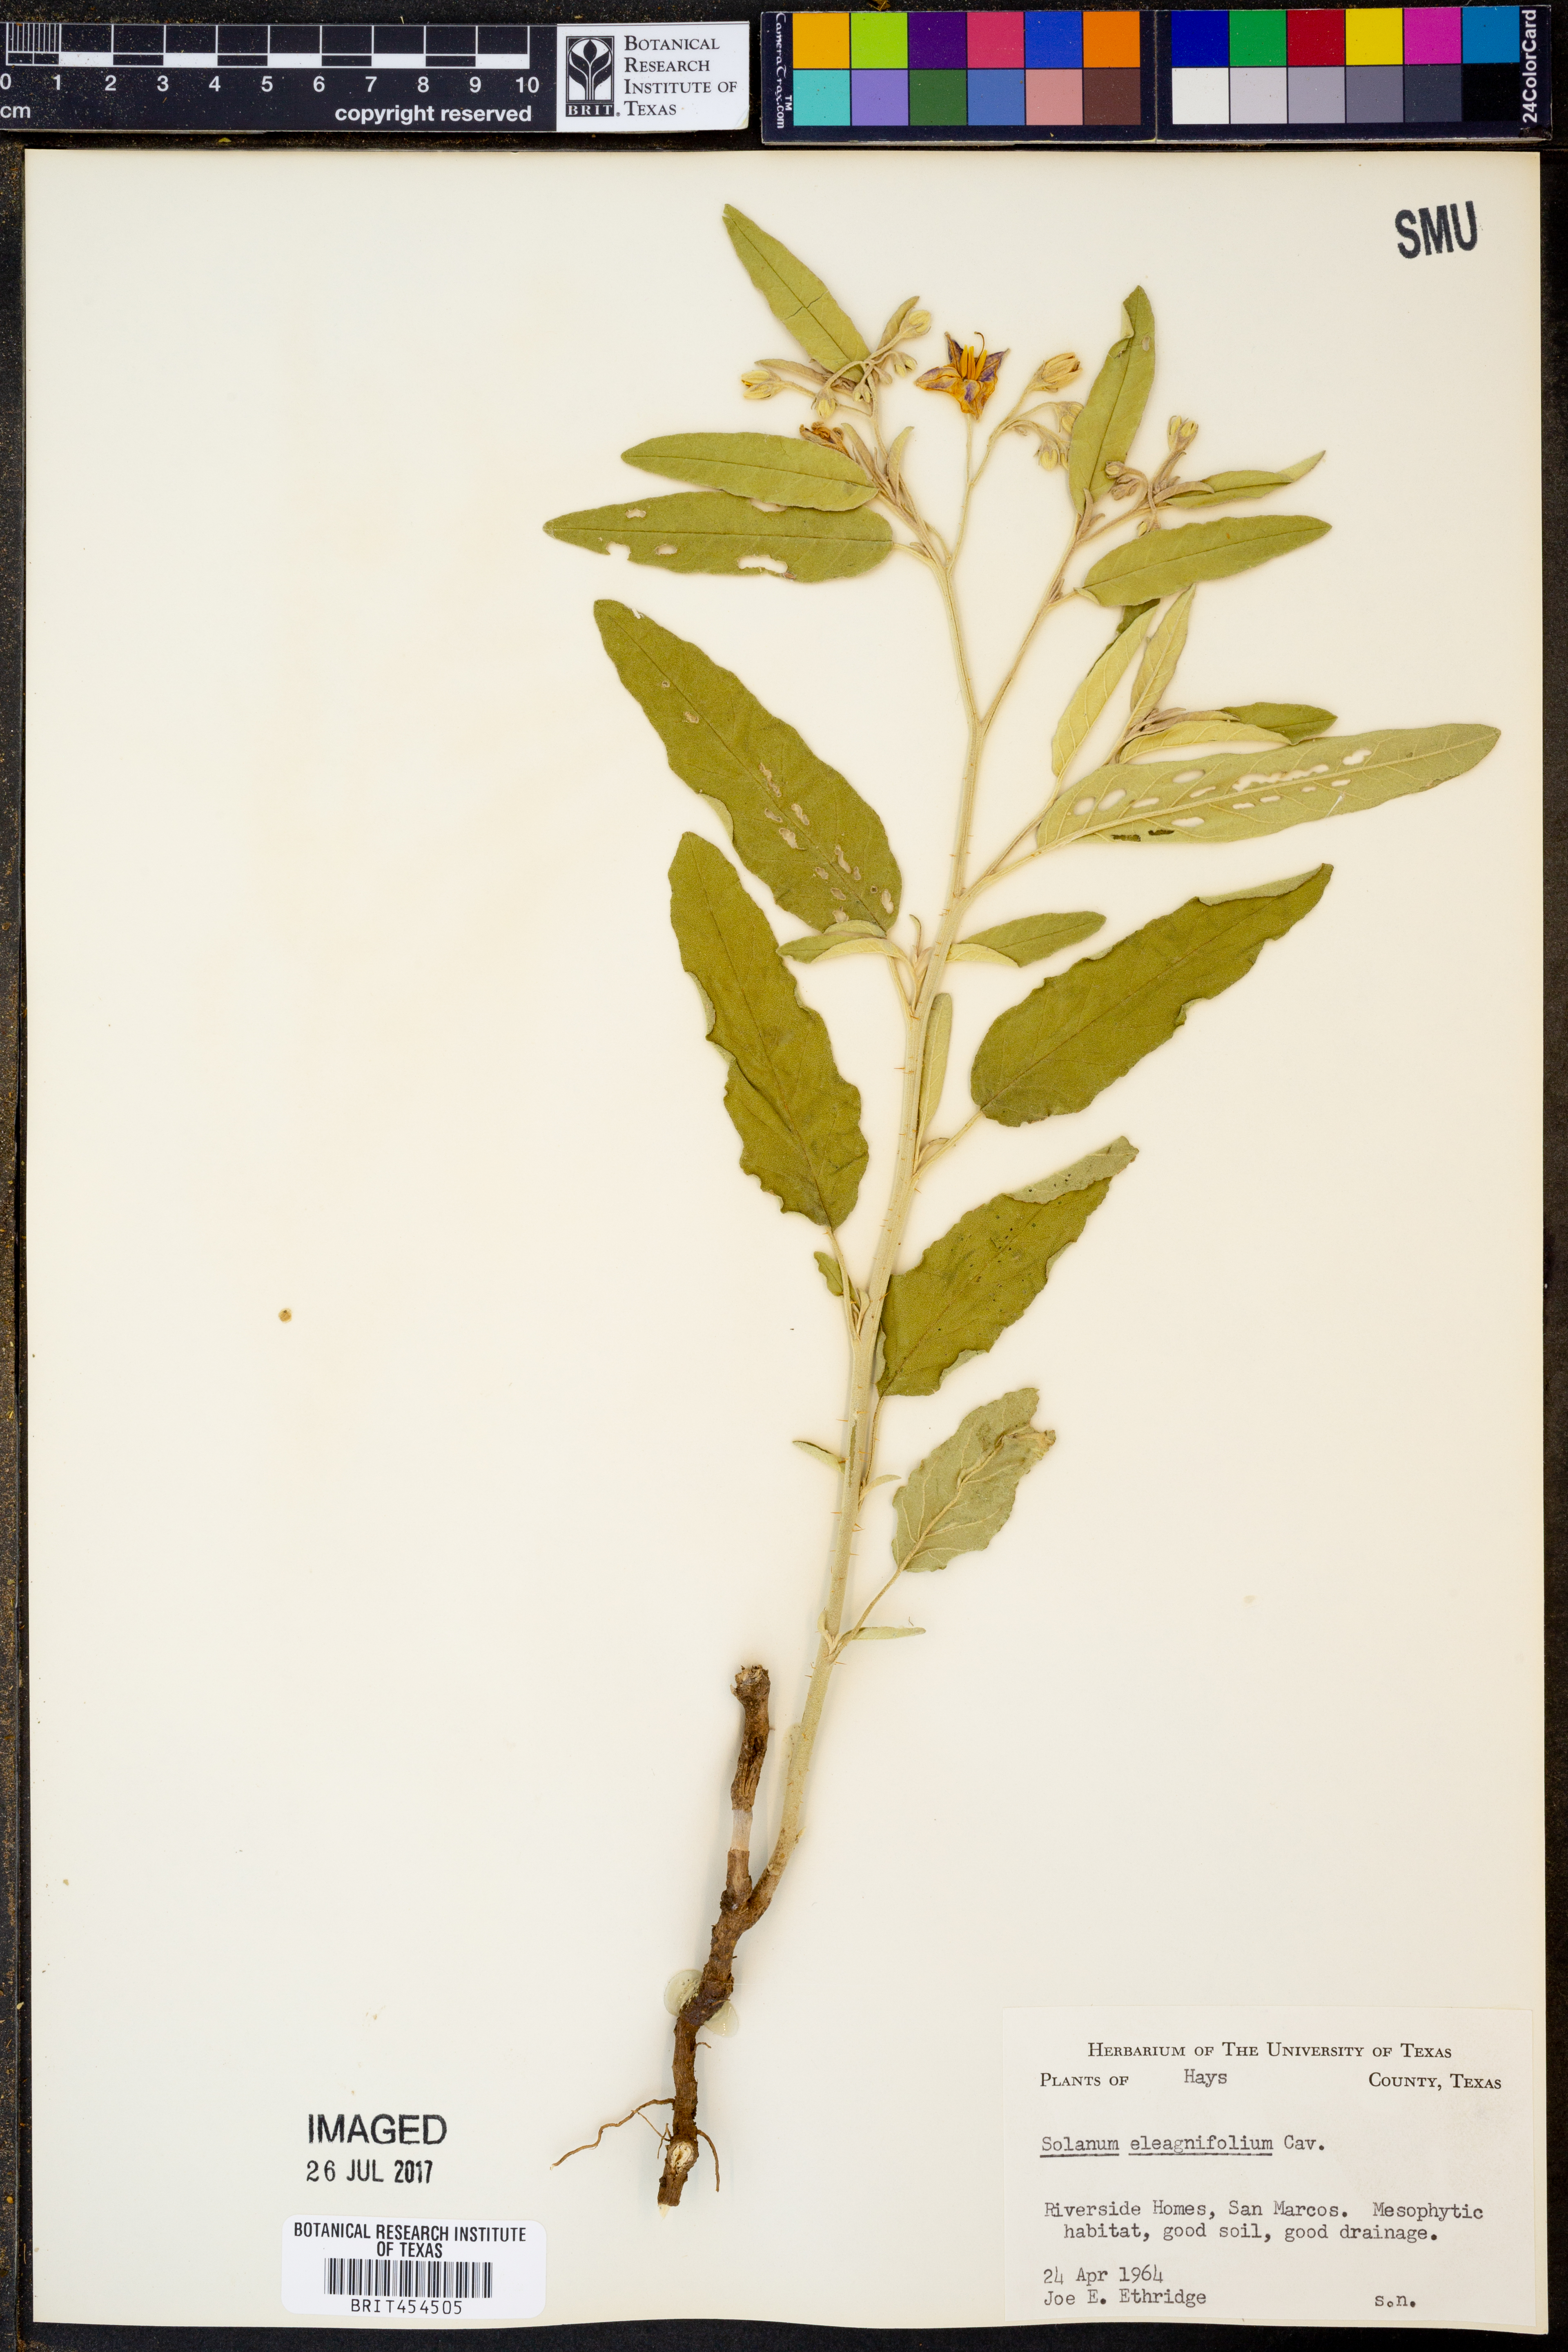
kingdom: Plantae
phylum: Tracheophyta
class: Magnoliopsida
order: Solanales
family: Solanaceae
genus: Solanum
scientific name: Solanum elaeagnifolium
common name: Silverleaf nightshade
